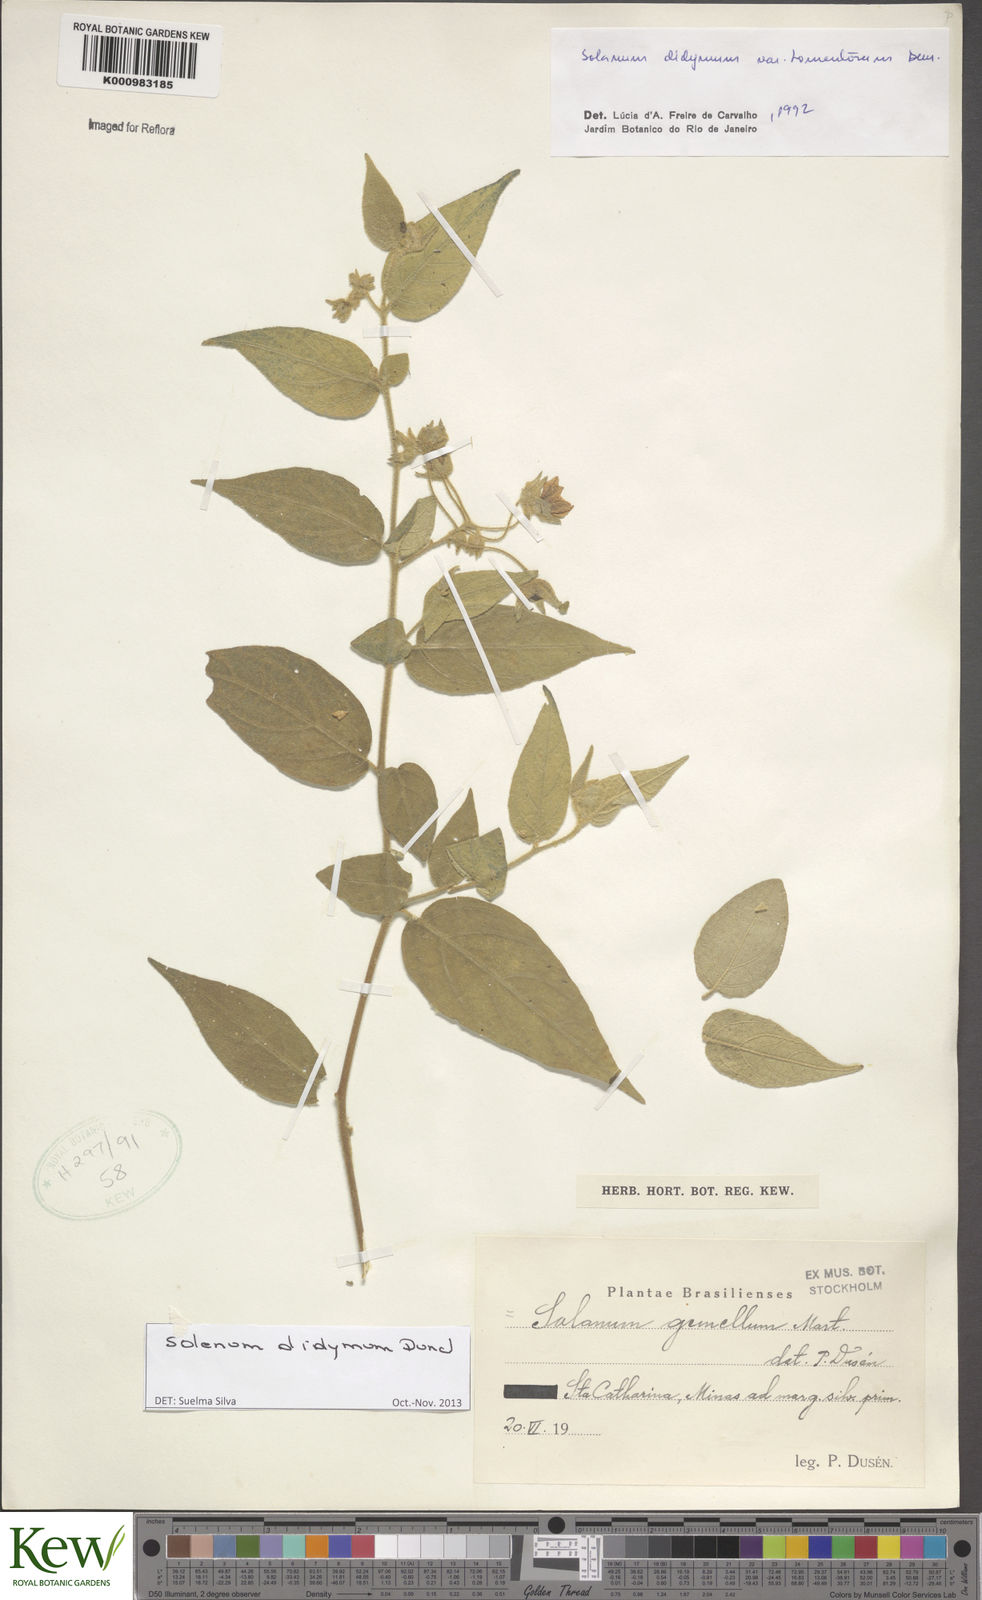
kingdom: Plantae
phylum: Tracheophyta
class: Magnoliopsida
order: Solanales
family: Solanaceae
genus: Solanum
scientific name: Solanum didymum
